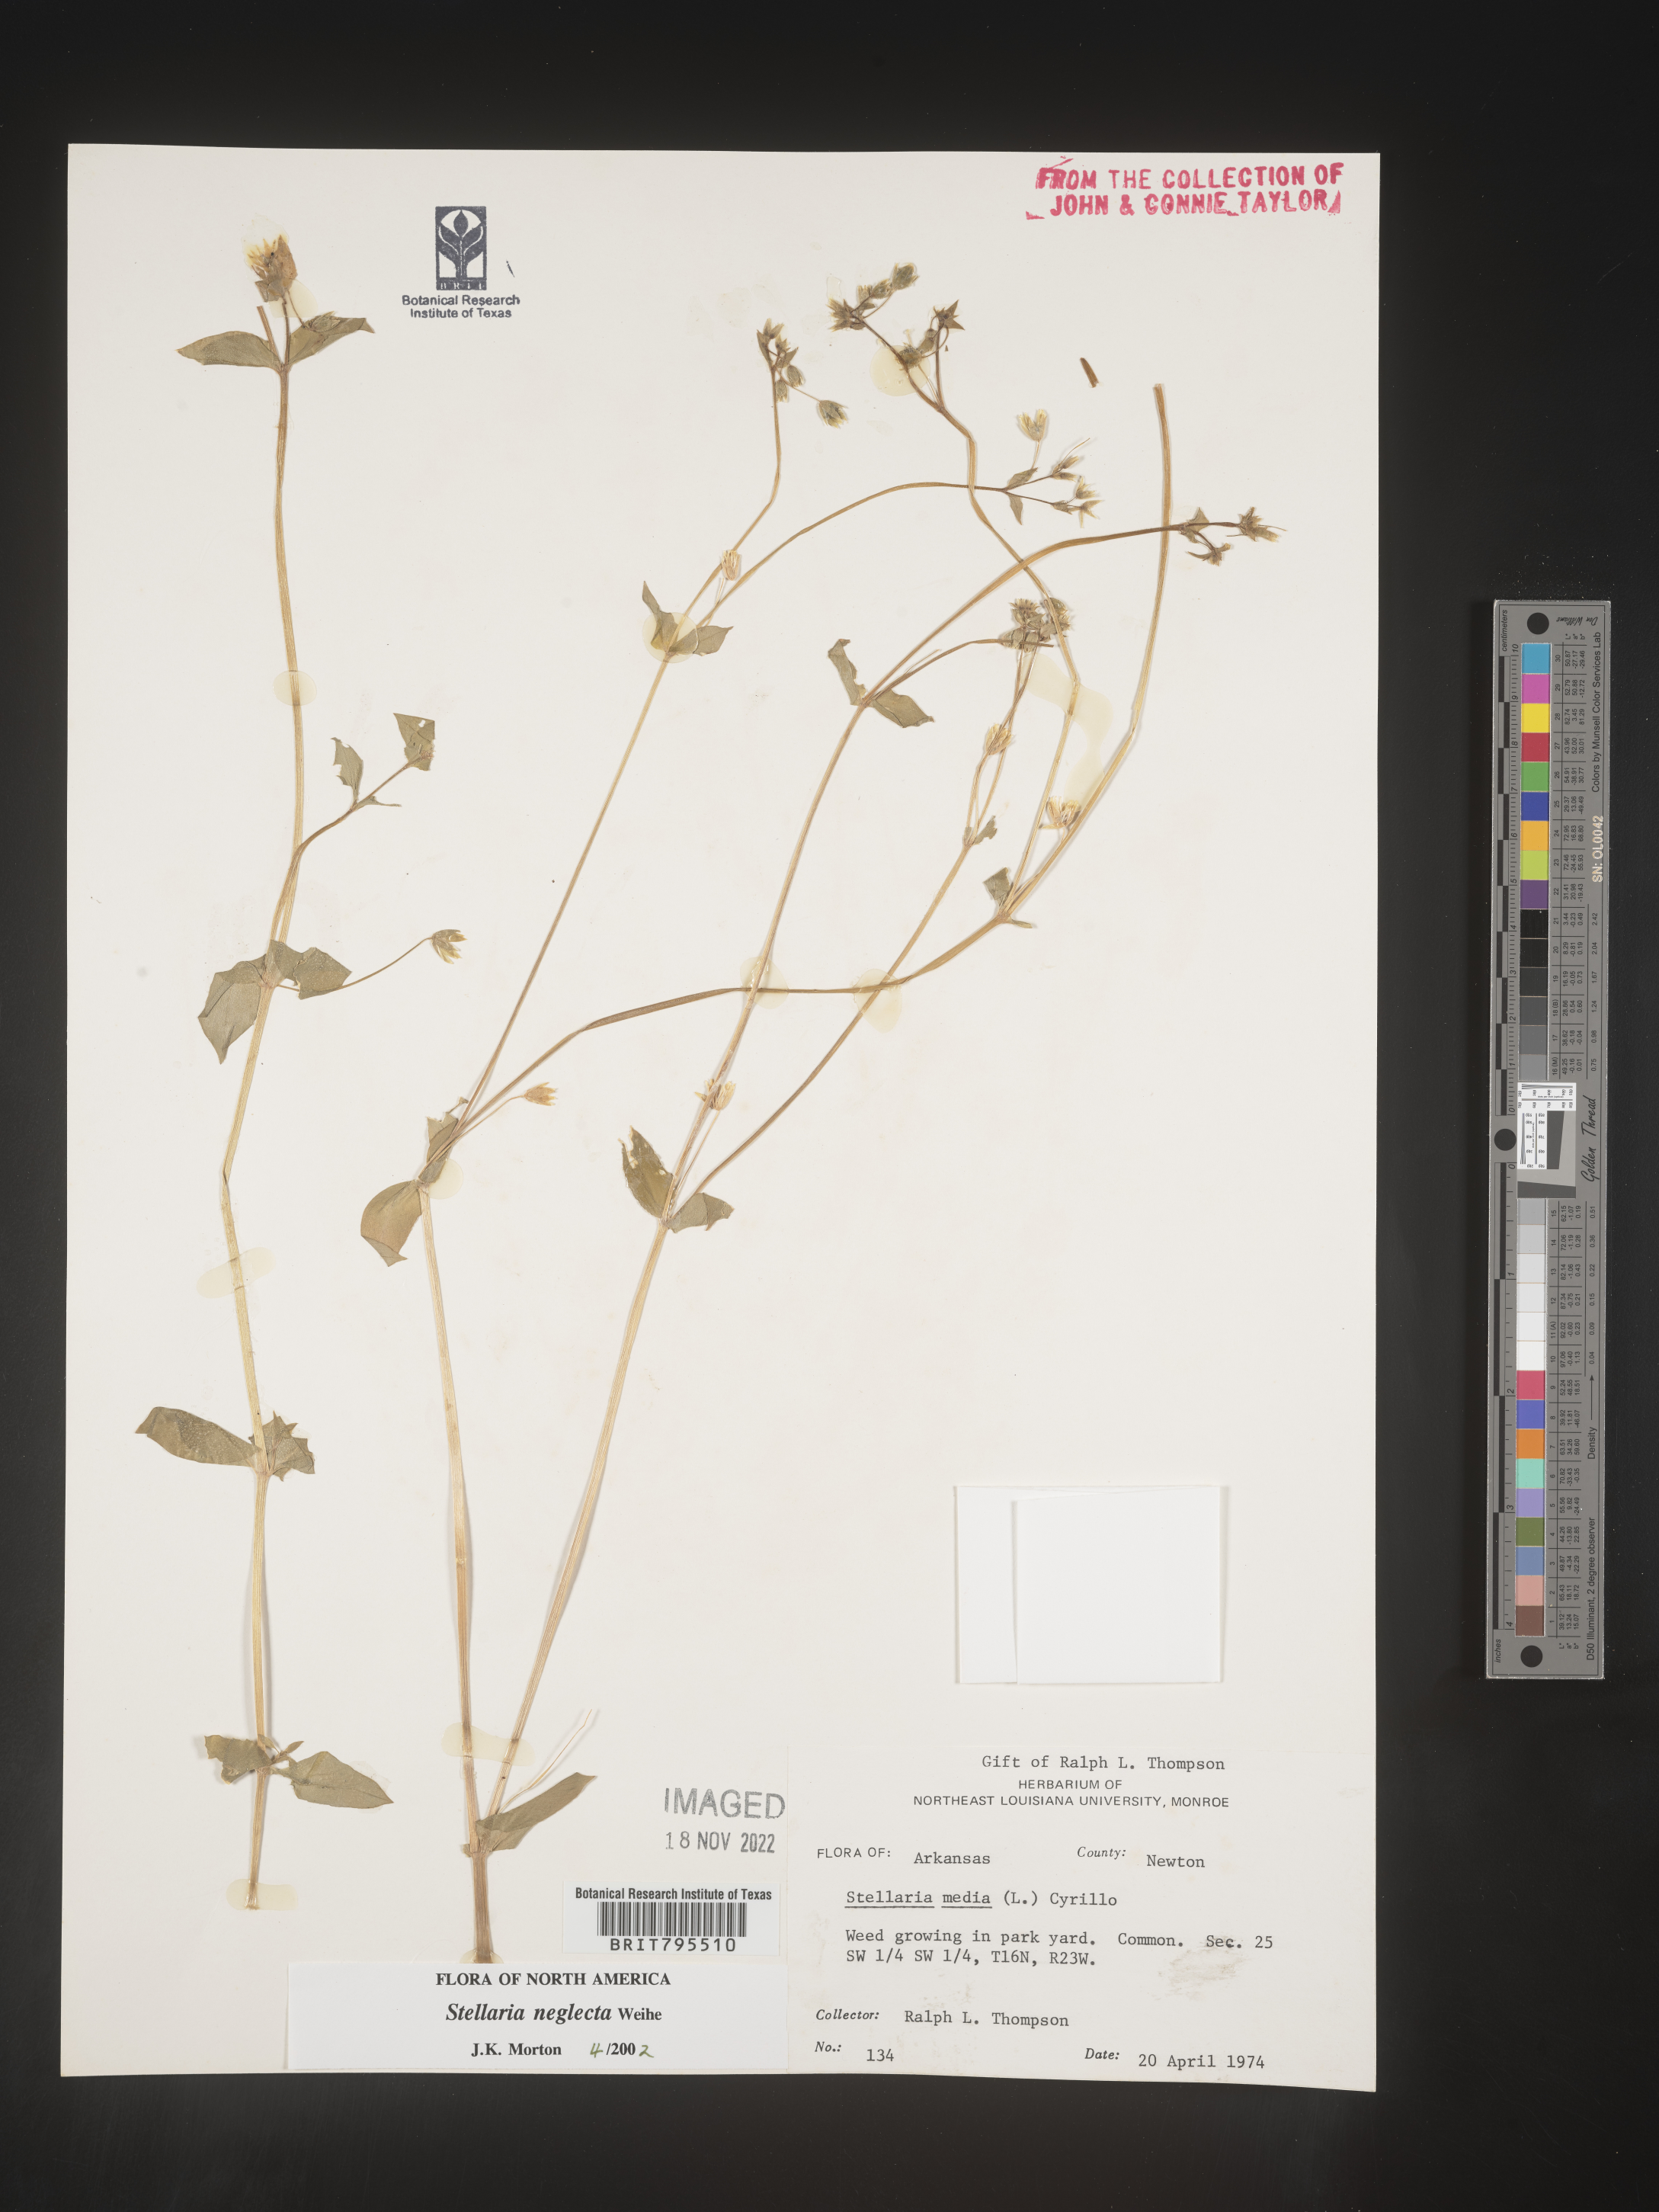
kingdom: Plantae
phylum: Tracheophyta
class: Magnoliopsida
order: Caryophyllales
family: Caryophyllaceae
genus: Stellaria
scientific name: Stellaria neglecta
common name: Greater chickweed
